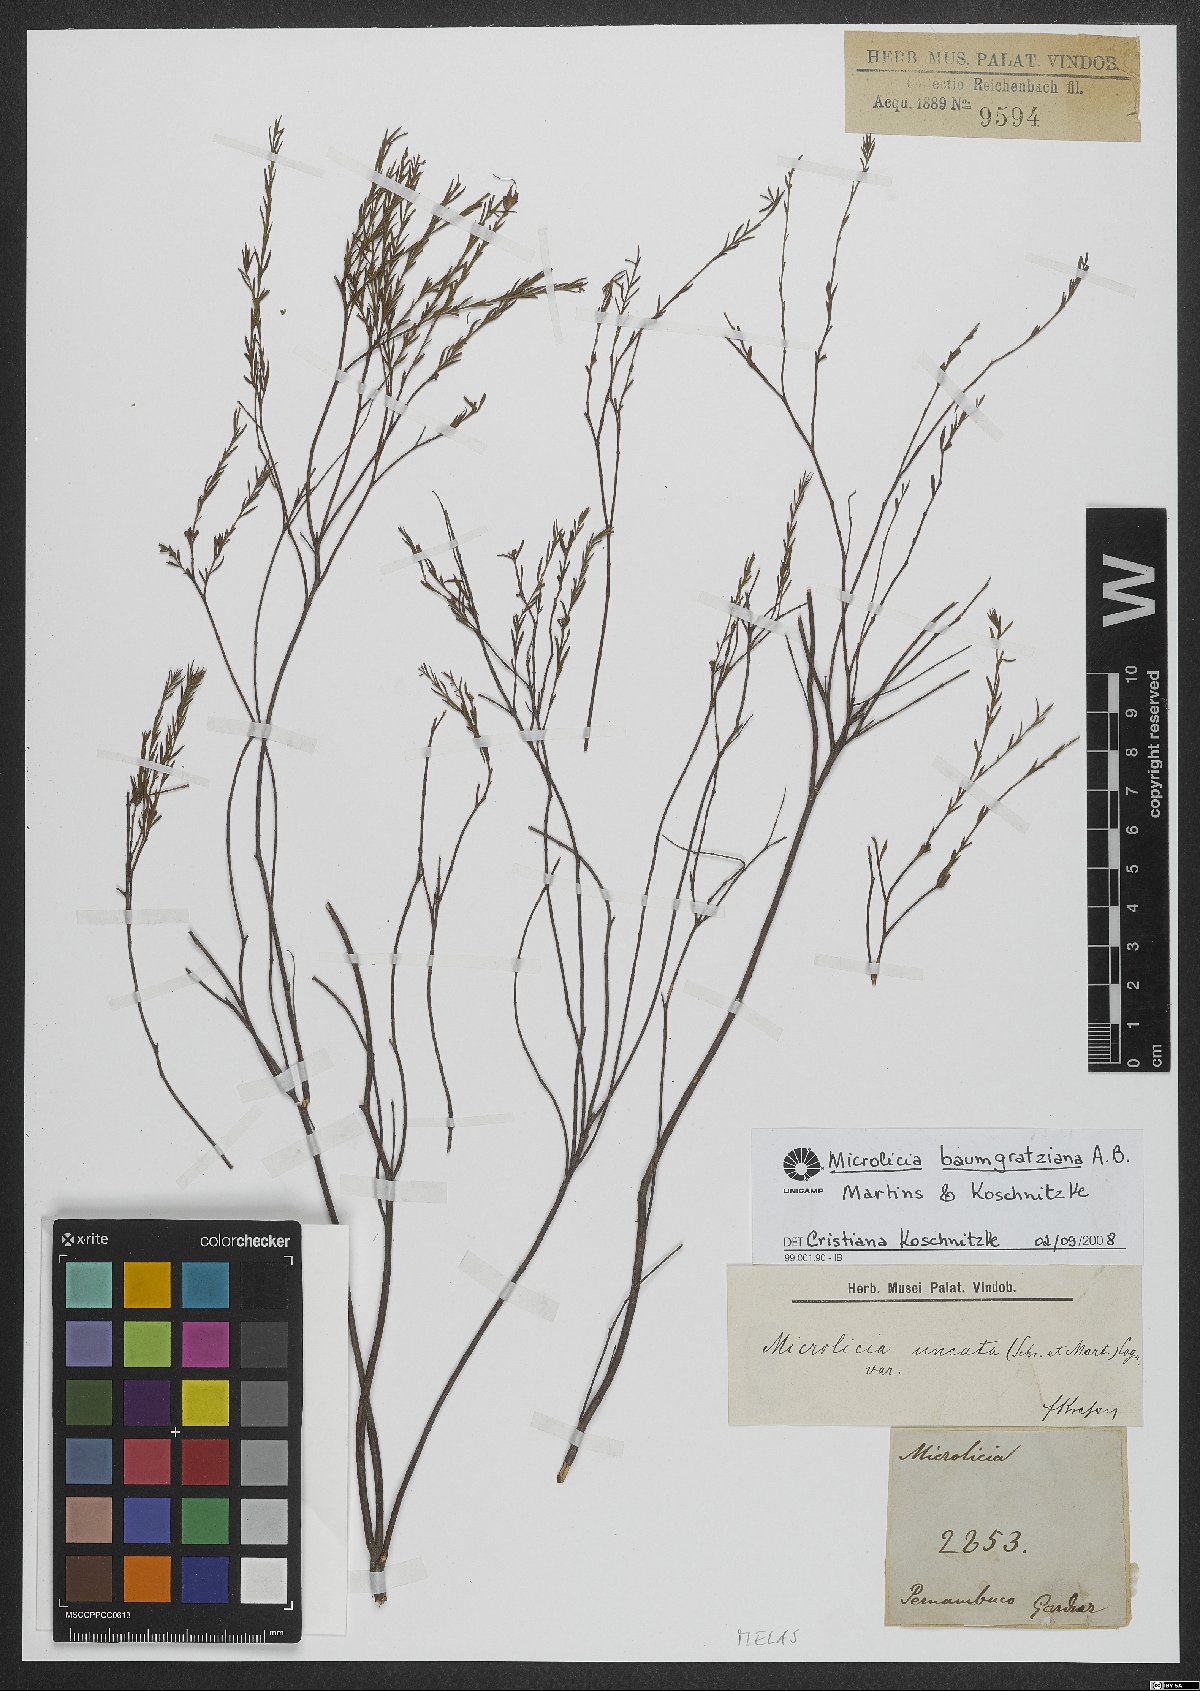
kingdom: Plantae
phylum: Tracheophyta
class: Magnoliopsida
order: Myrtales
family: Melastomataceae
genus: Microlicia
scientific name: Microlicia baumgratziana
